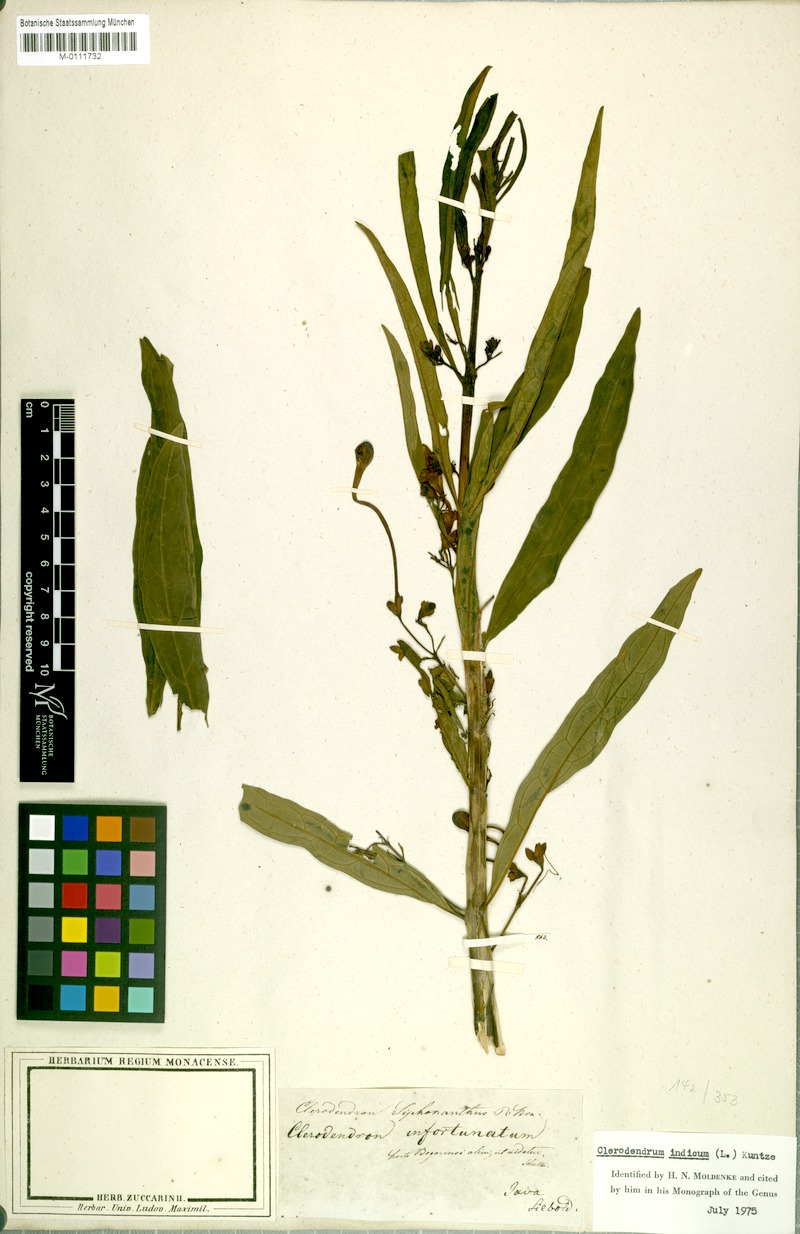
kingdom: Plantae
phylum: Tracheophyta
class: Magnoliopsida
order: Lamiales
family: Lamiaceae
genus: Clerodendrum
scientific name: Clerodendrum indicum
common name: Turk's turbin
